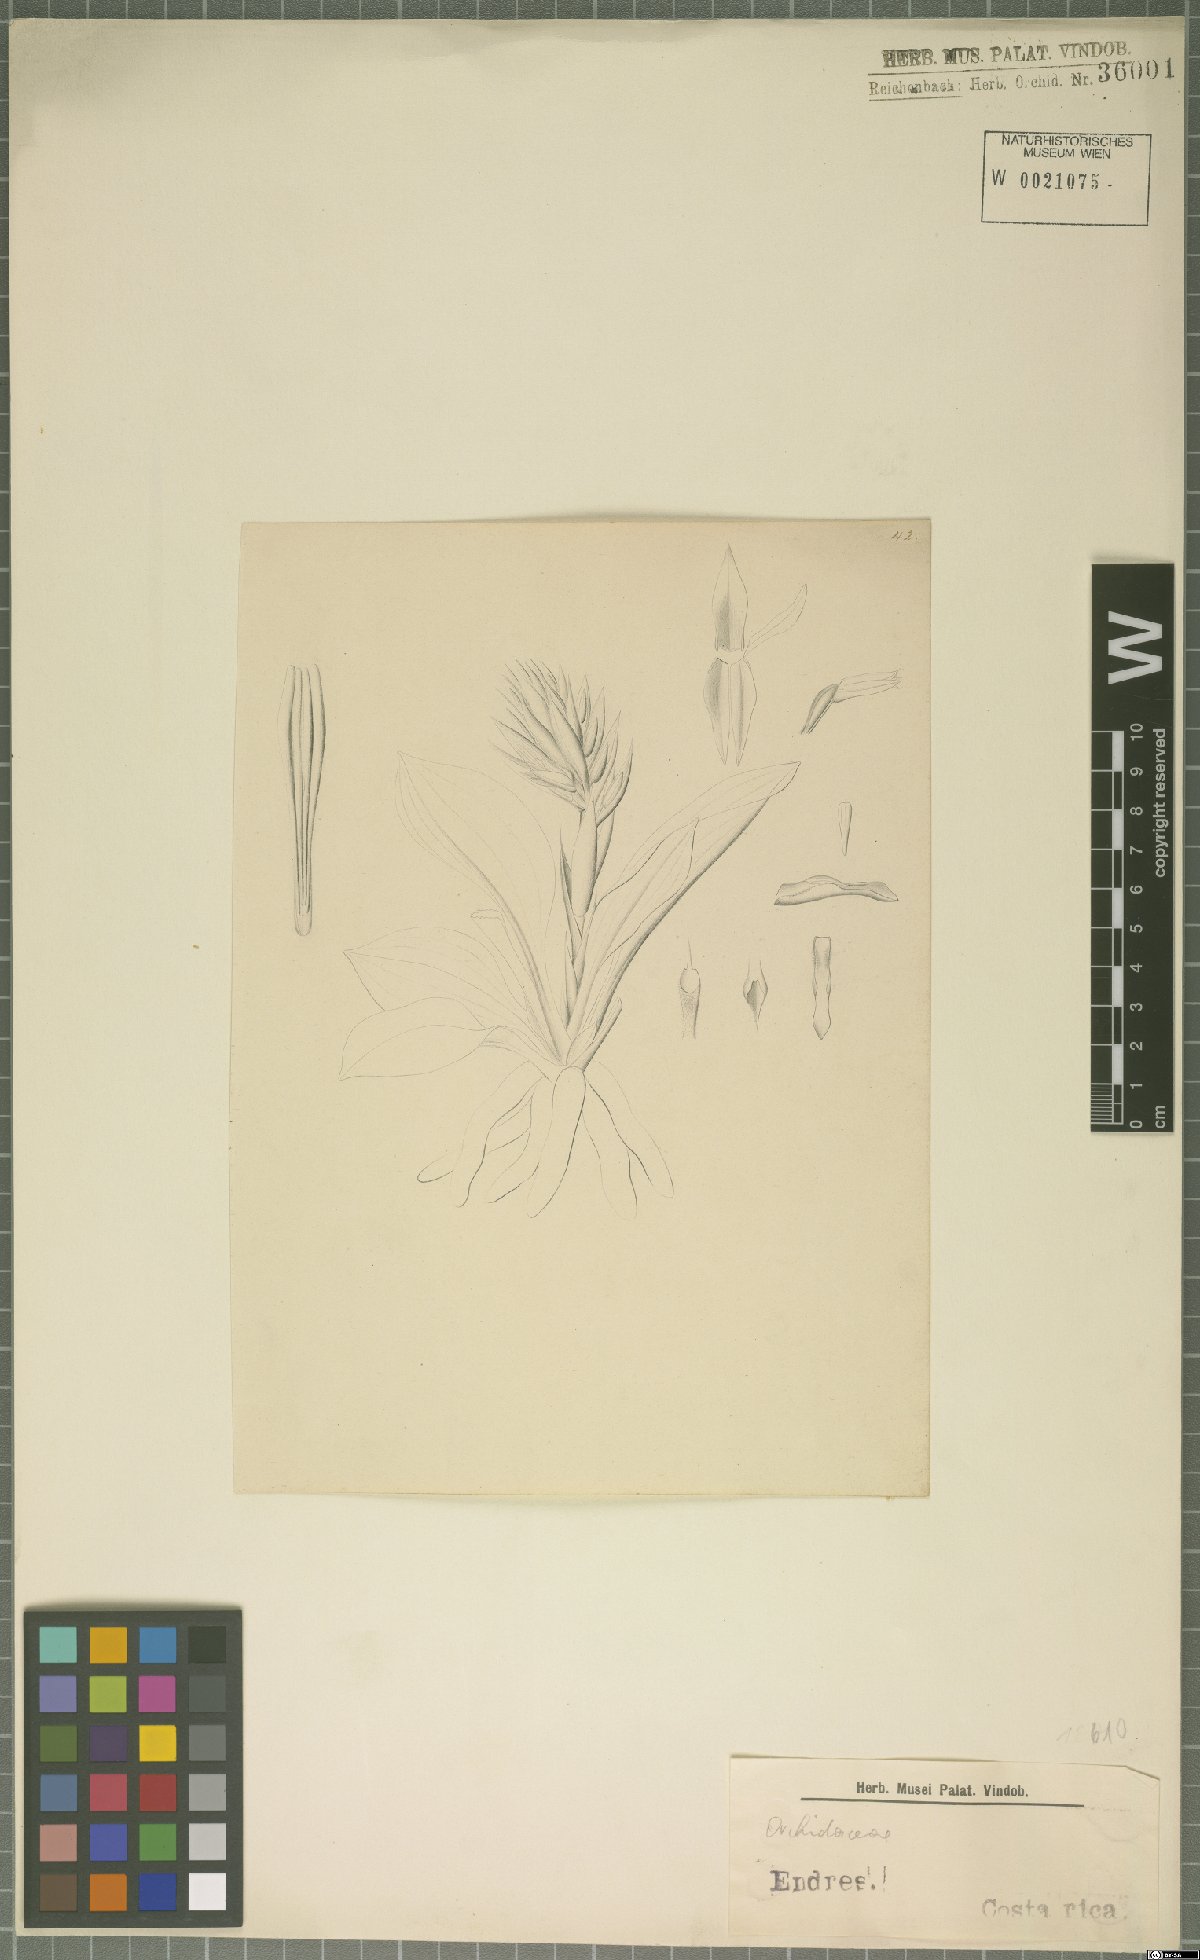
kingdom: Plantae
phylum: Tracheophyta
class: Liliopsida
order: Asparagales
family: Orchidaceae
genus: Stenorrhynchos
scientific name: Stenorrhynchos speciosum
